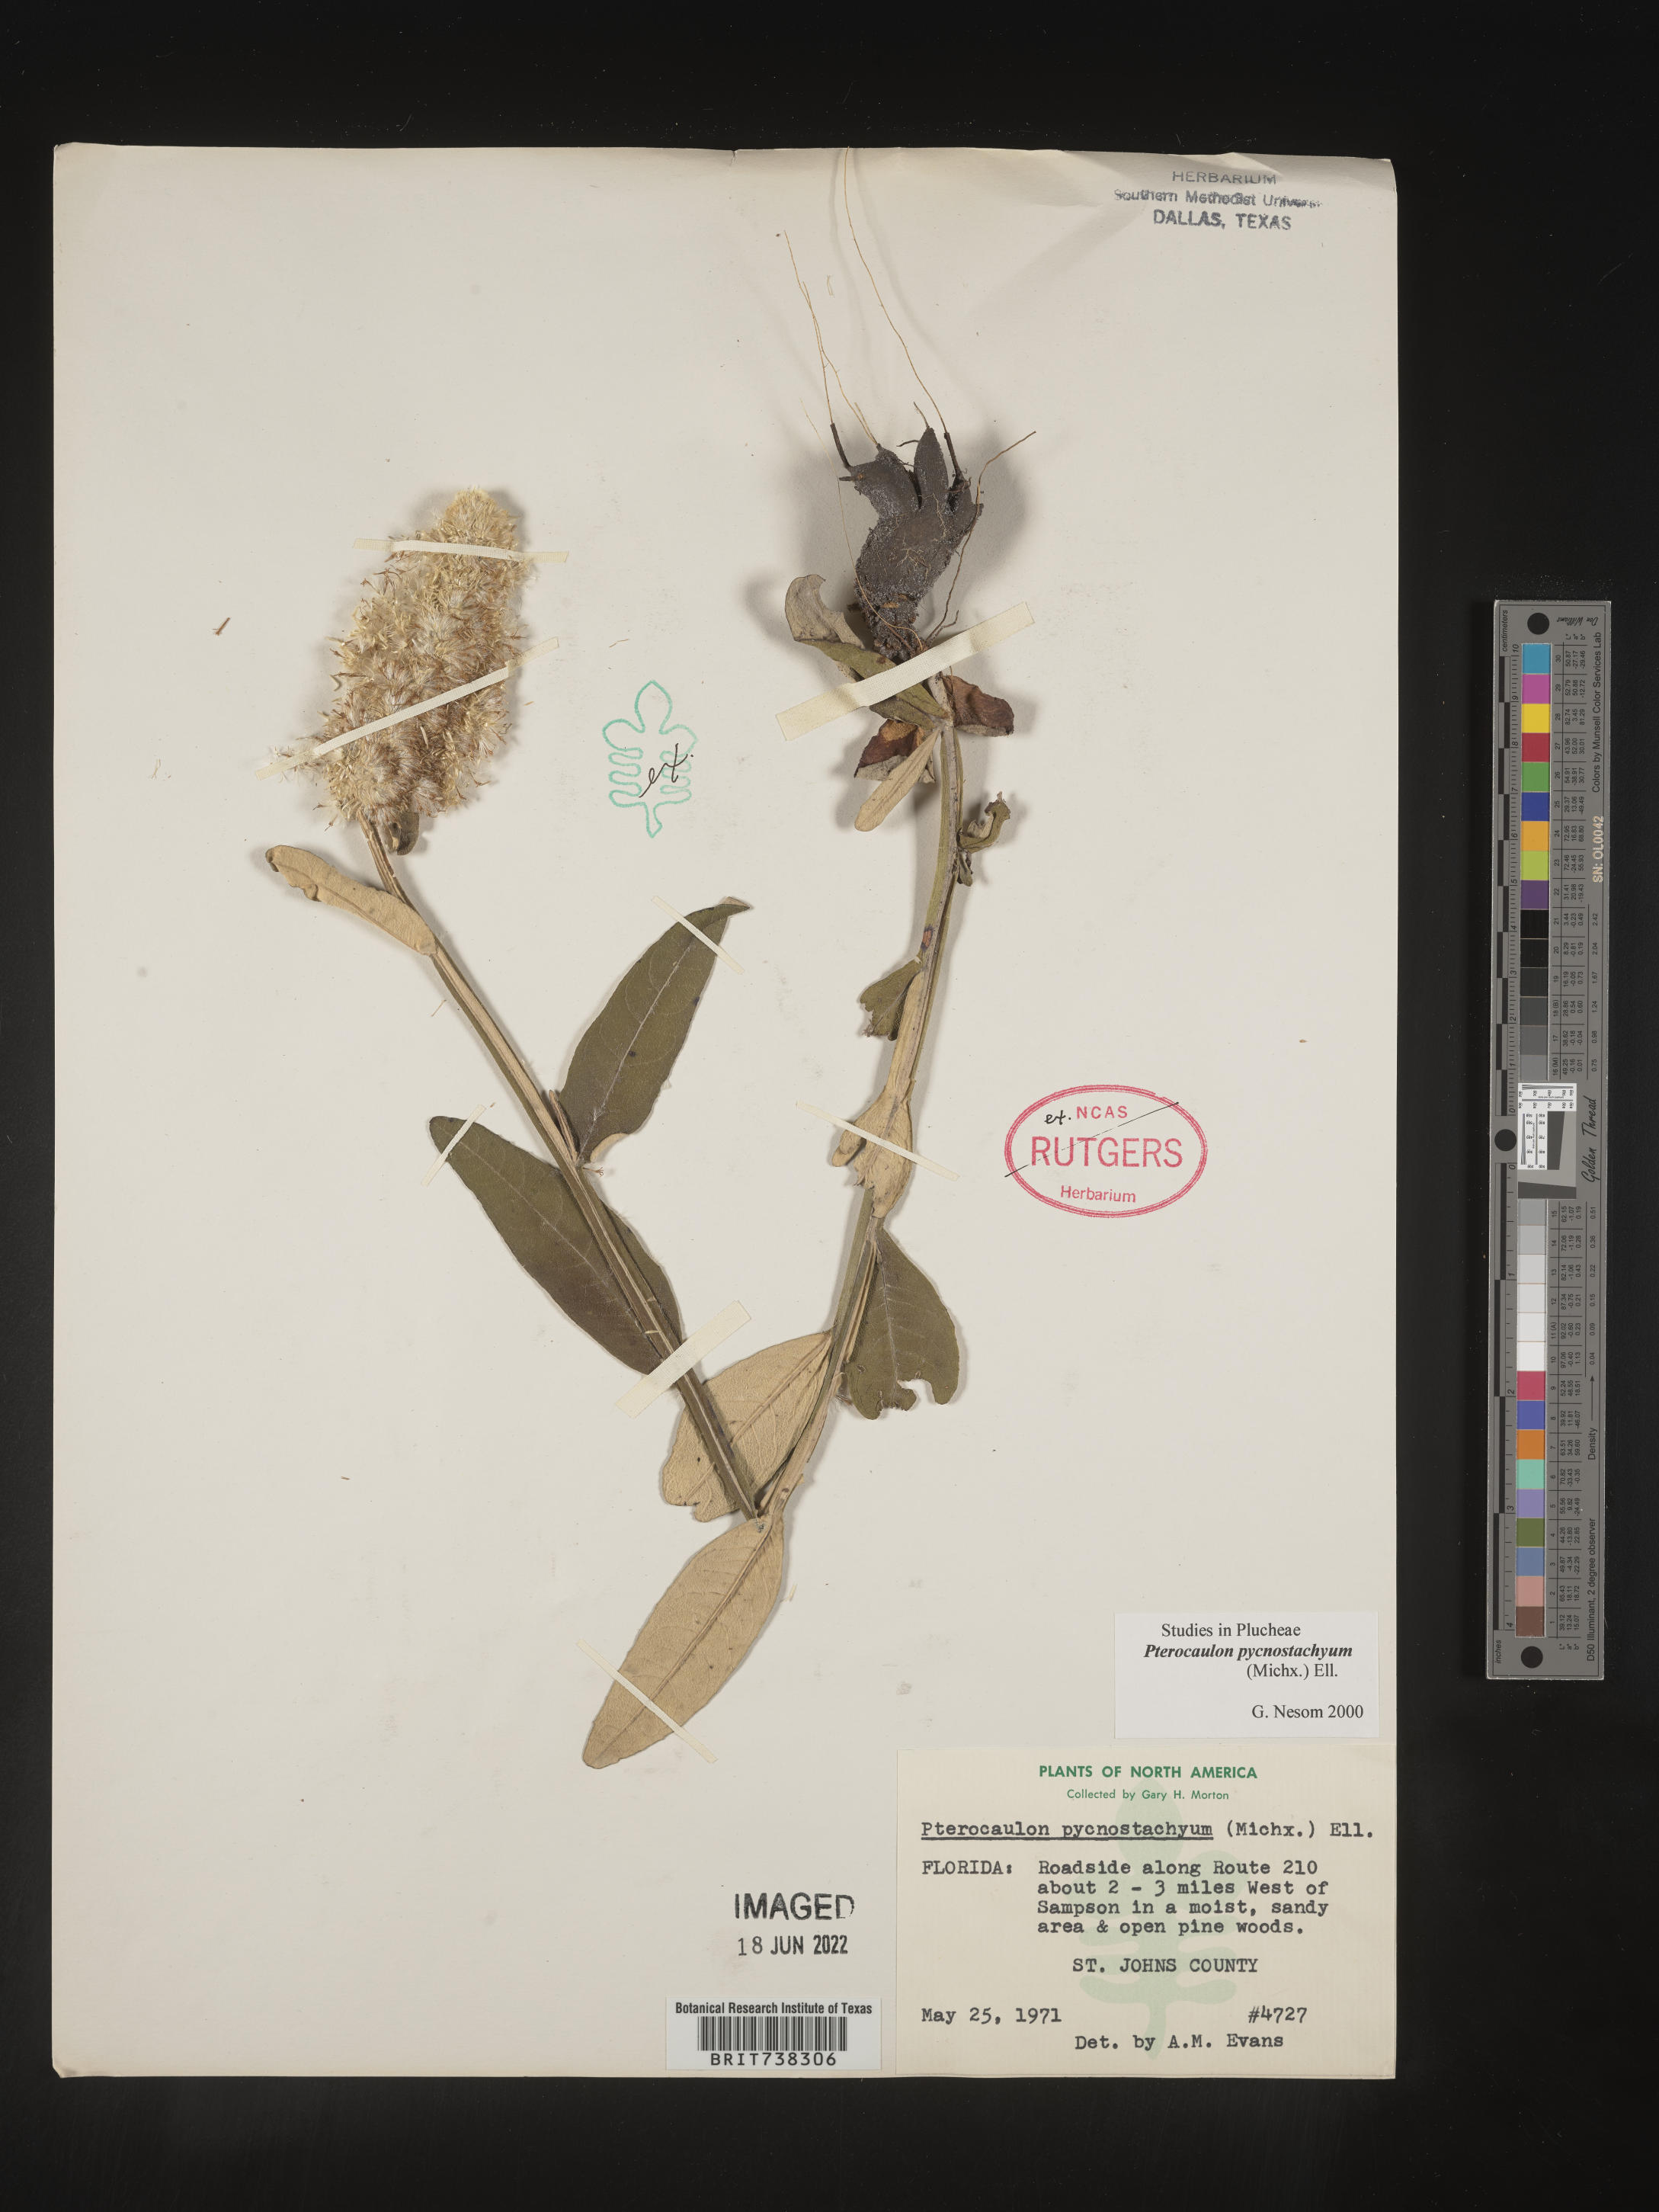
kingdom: Plantae
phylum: Tracheophyta
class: Magnoliopsida
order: Asterales
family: Asteraceae
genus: Pterocaulon
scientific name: Pterocaulon pycnostachyum
